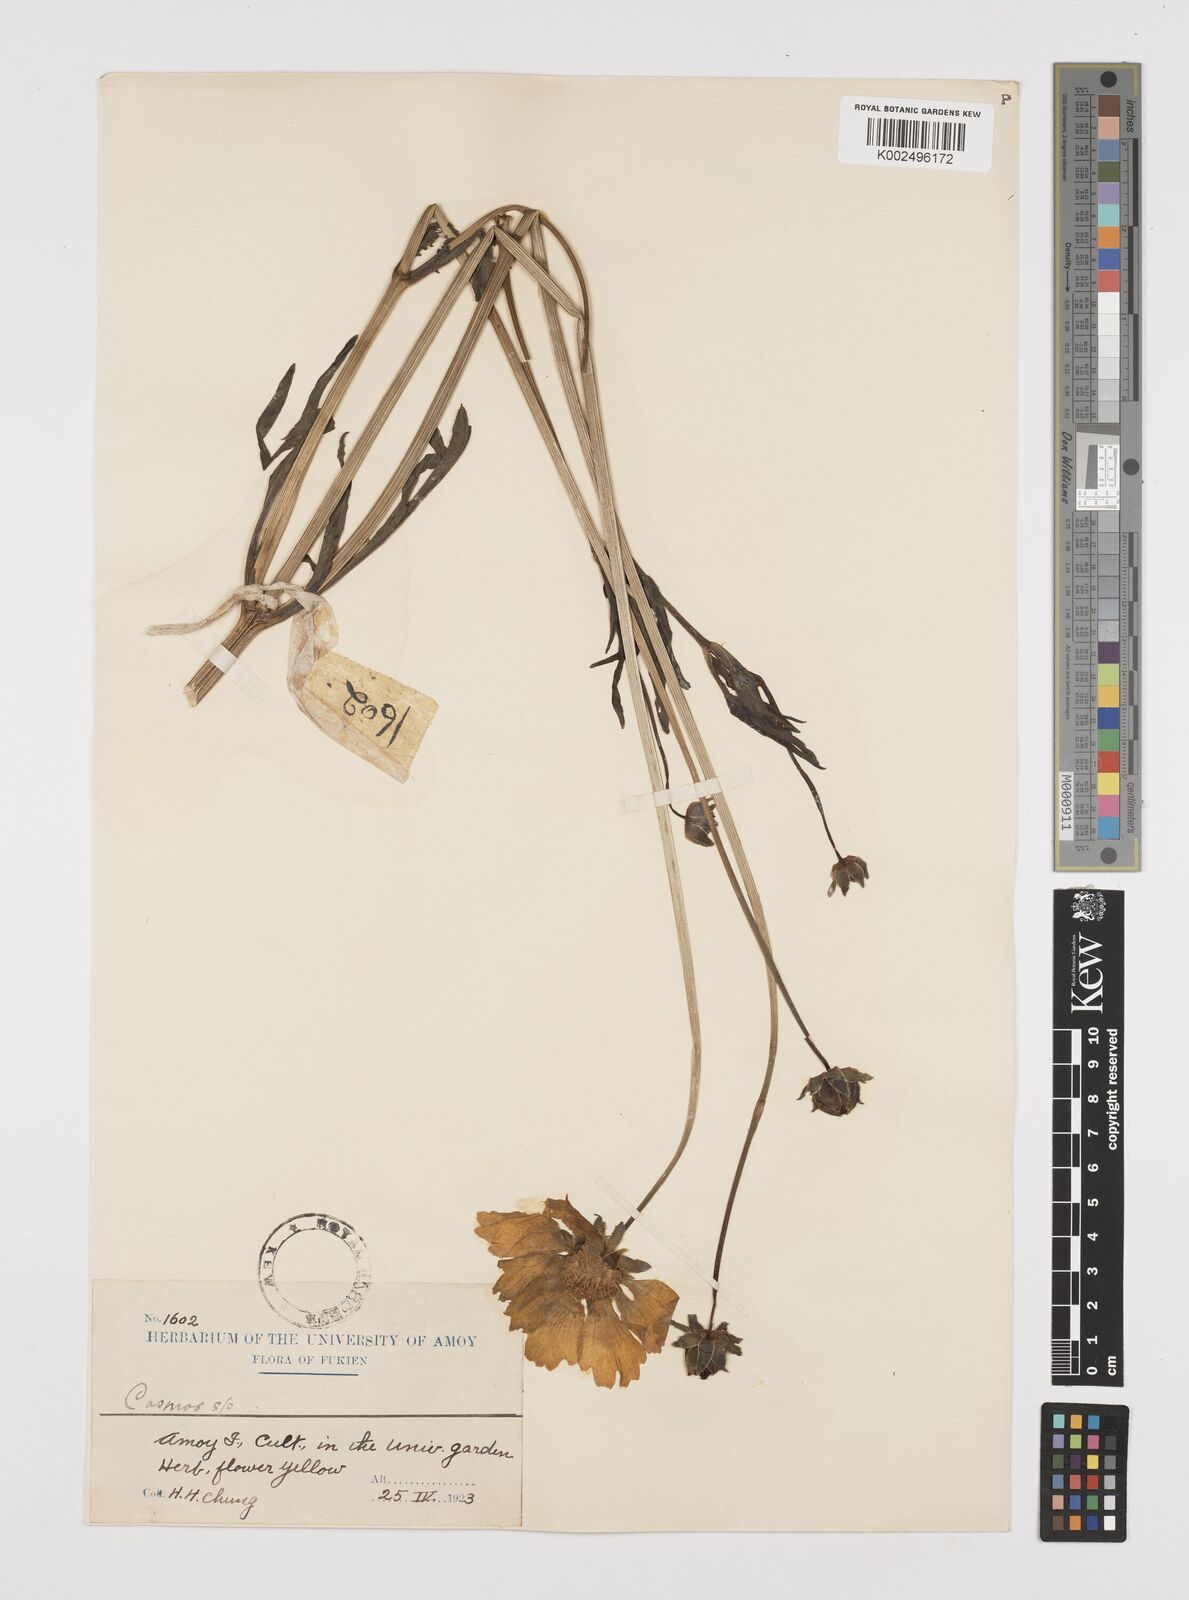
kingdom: Plantae
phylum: Tracheophyta
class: Magnoliopsida
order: Asterales
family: Asteraceae
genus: Coreopsis
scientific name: Coreopsis grandiflora
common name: Large-flowered tickseed
